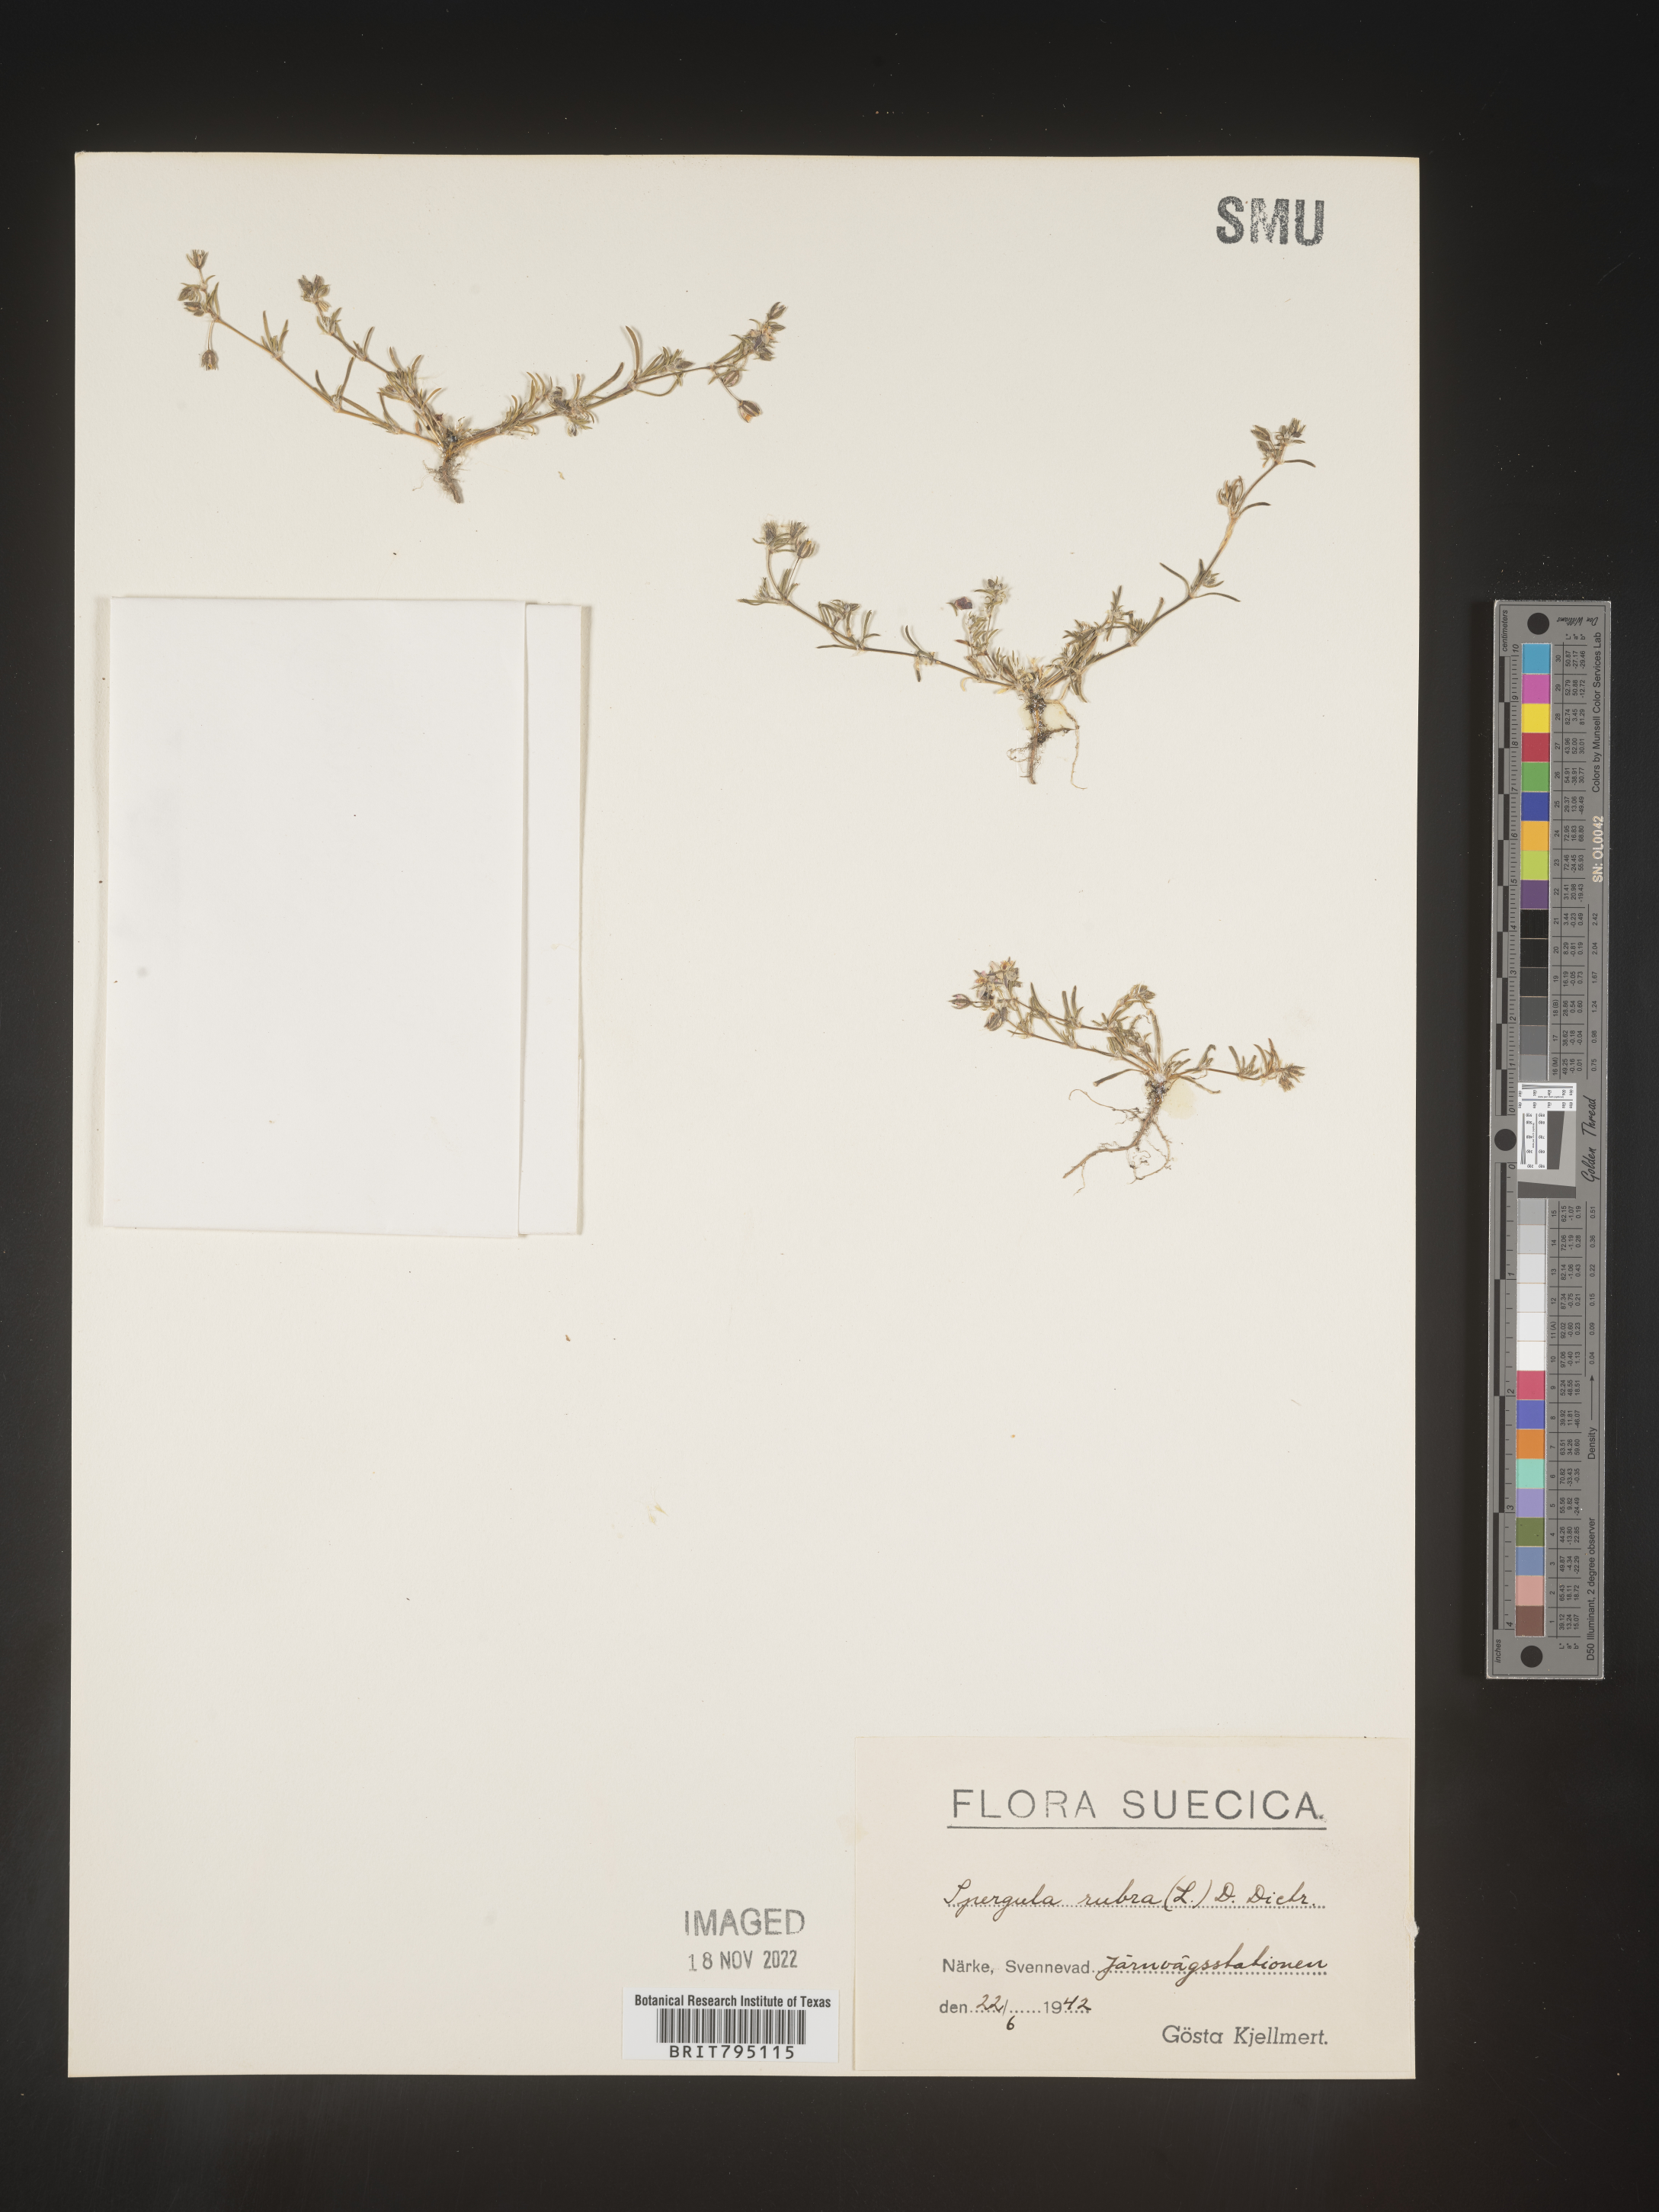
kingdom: Plantae
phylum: Tracheophyta
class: Magnoliopsida
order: Caryophyllales
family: Caryophyllaceae
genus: Spergula
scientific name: Spergula rubra
